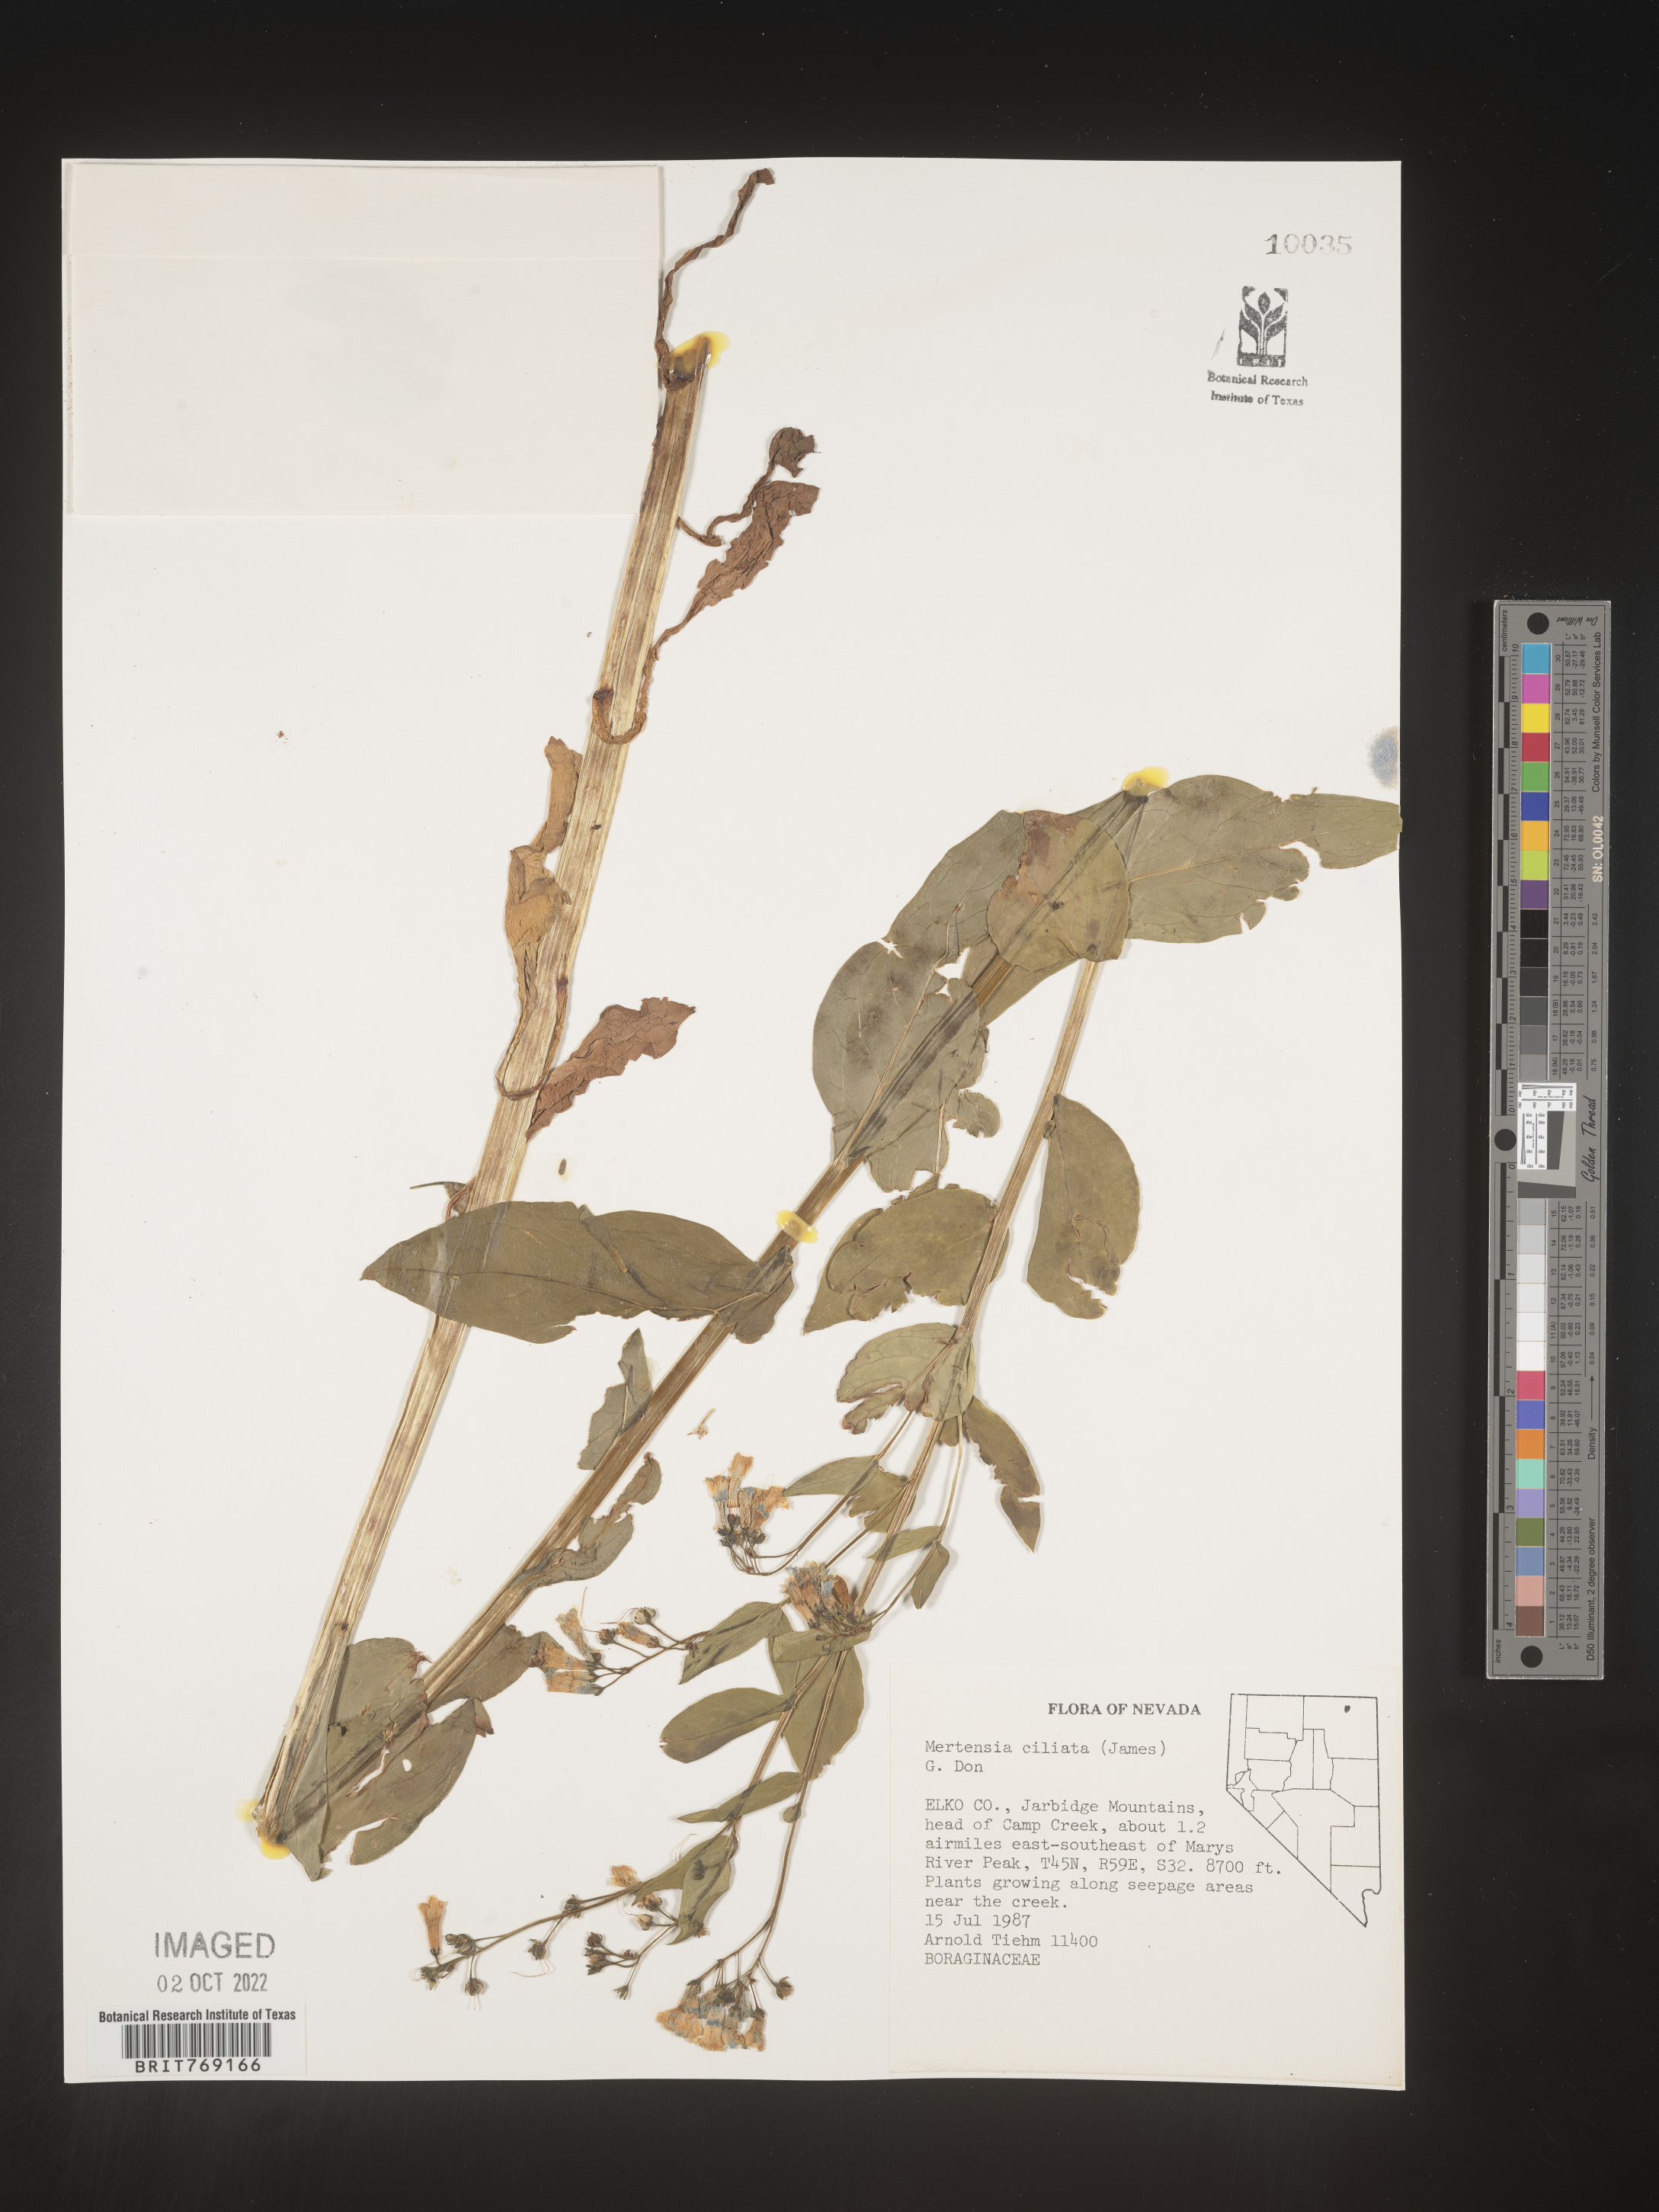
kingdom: Plantae
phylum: Tracheophyta
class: Magnoliopsida
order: Boraginales
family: Boraginaceae
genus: Mertensia
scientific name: Mertensia
